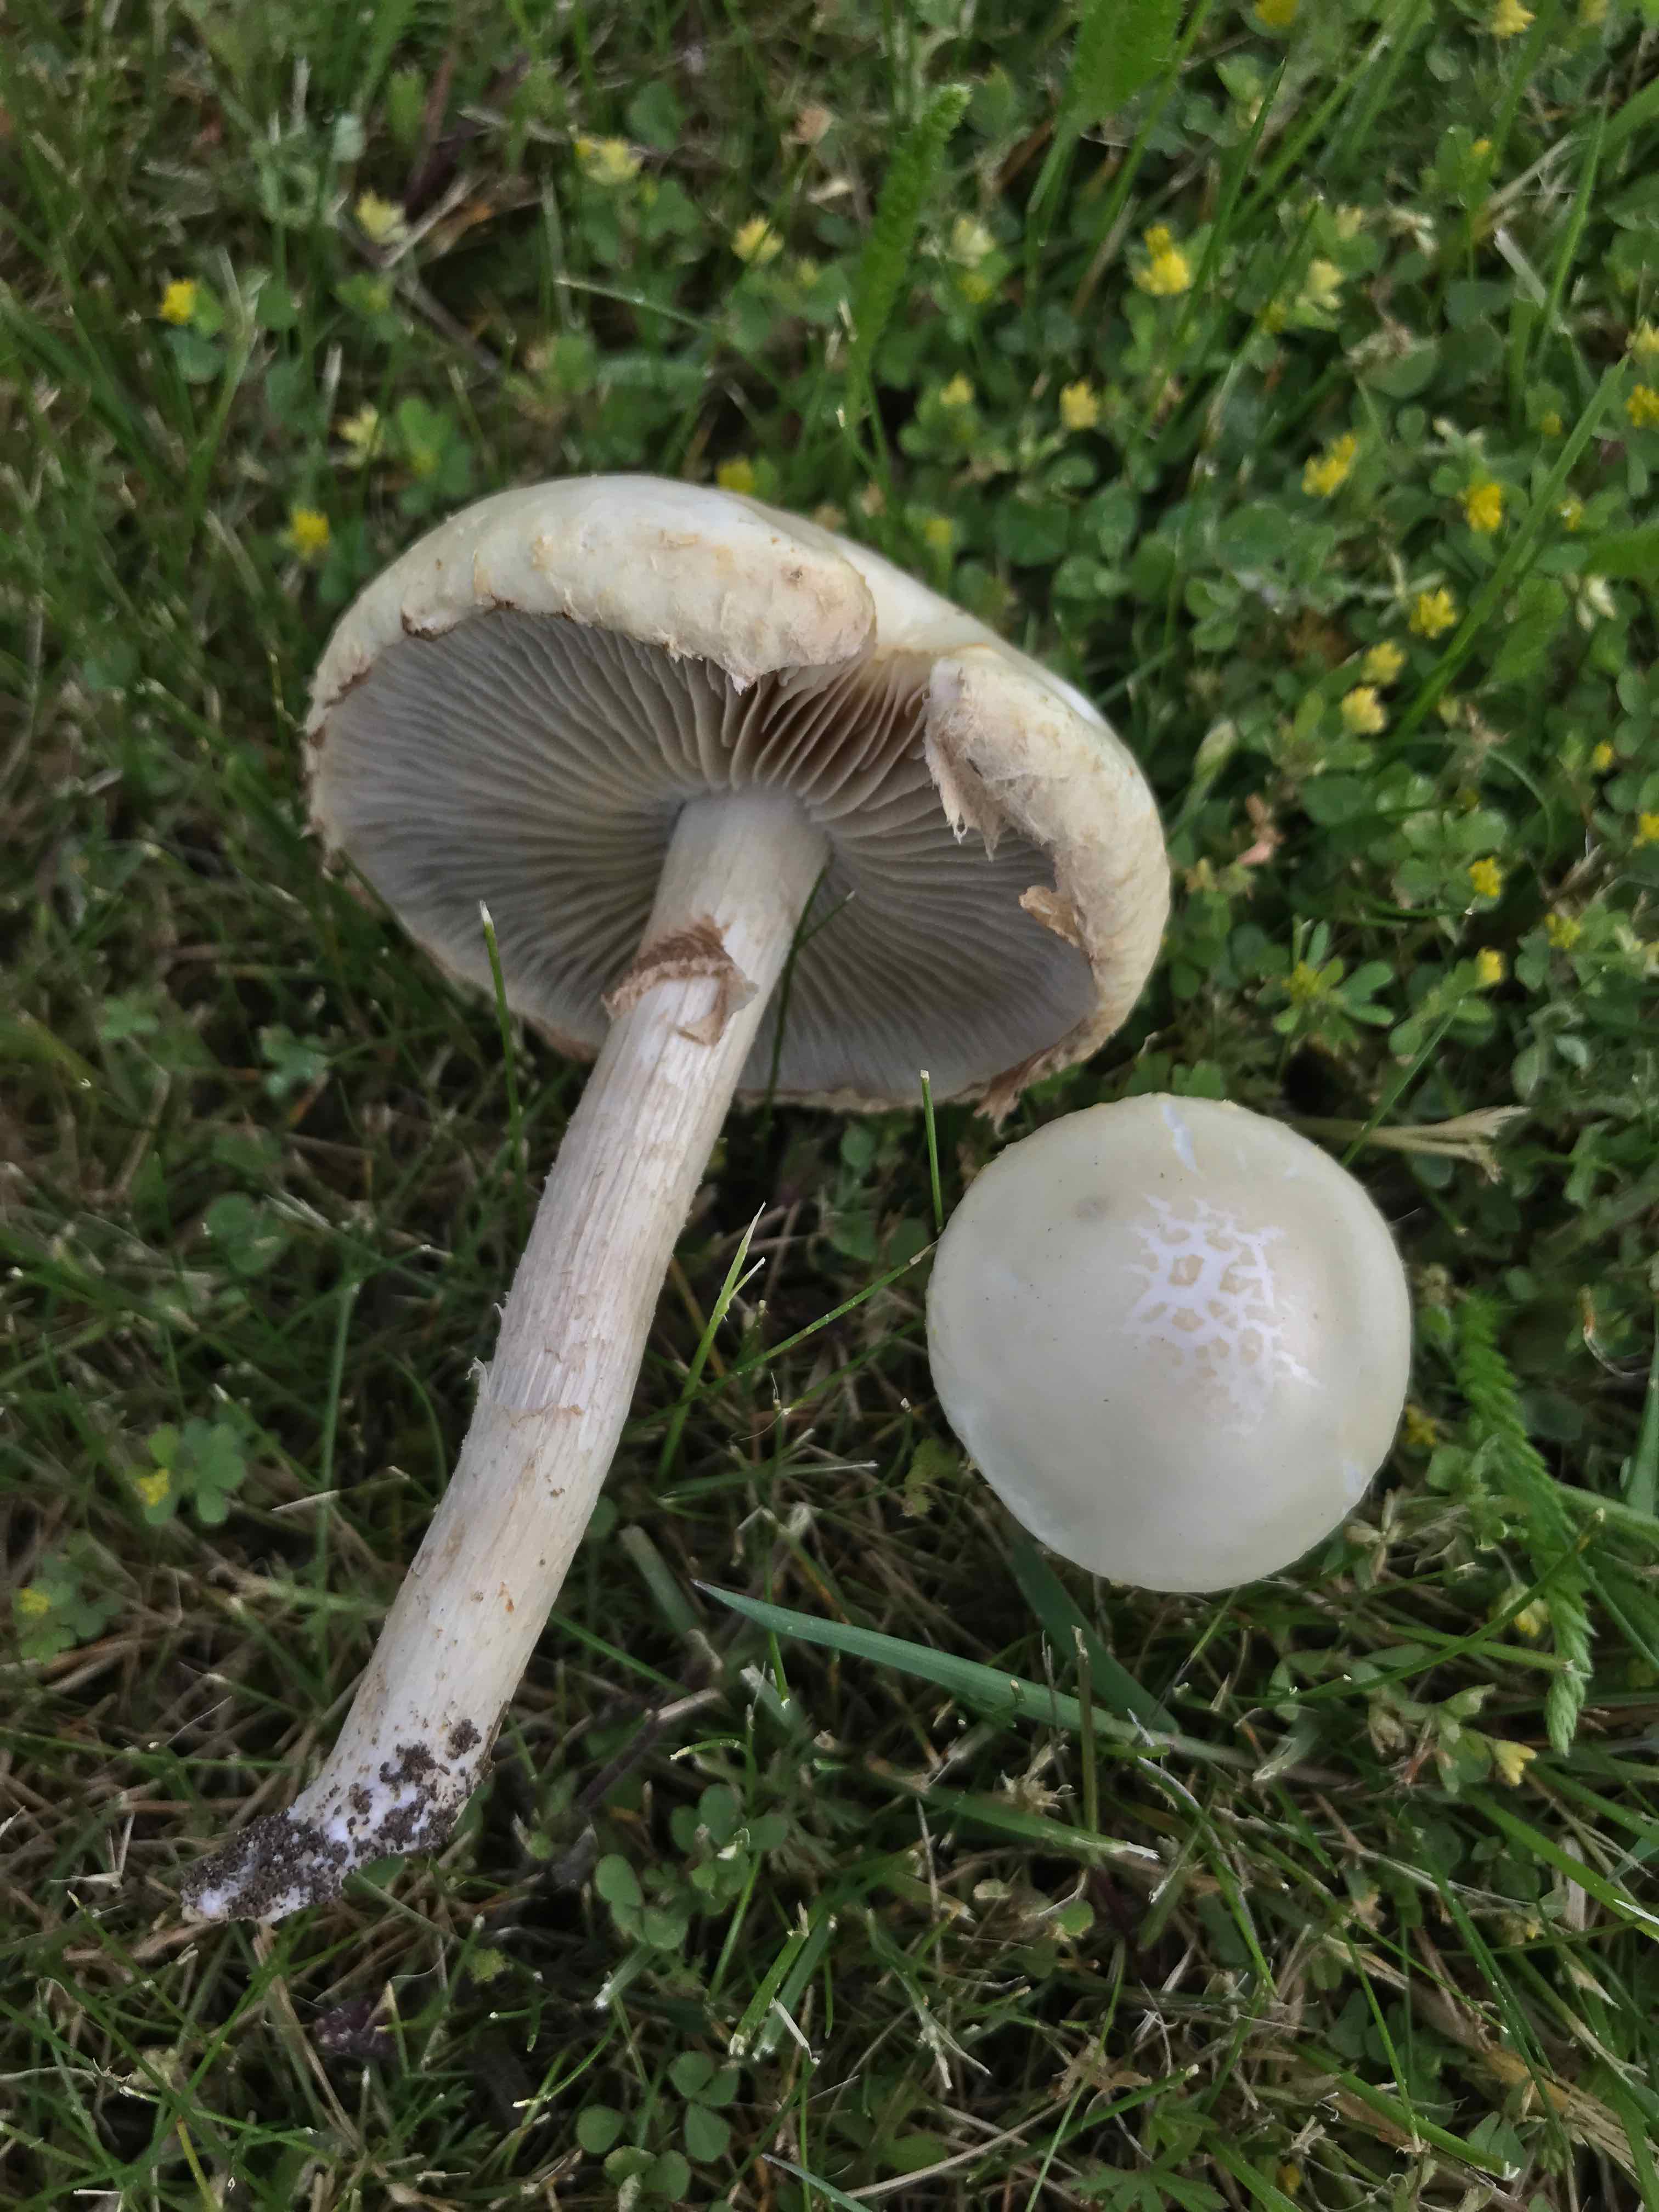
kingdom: Fungi
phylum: Basidiomycota
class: Agaricomycetes
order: Agaricales
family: Strophariaceae
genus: Agrocybe
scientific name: Agrocybe praecox
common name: tidlig agerhat
